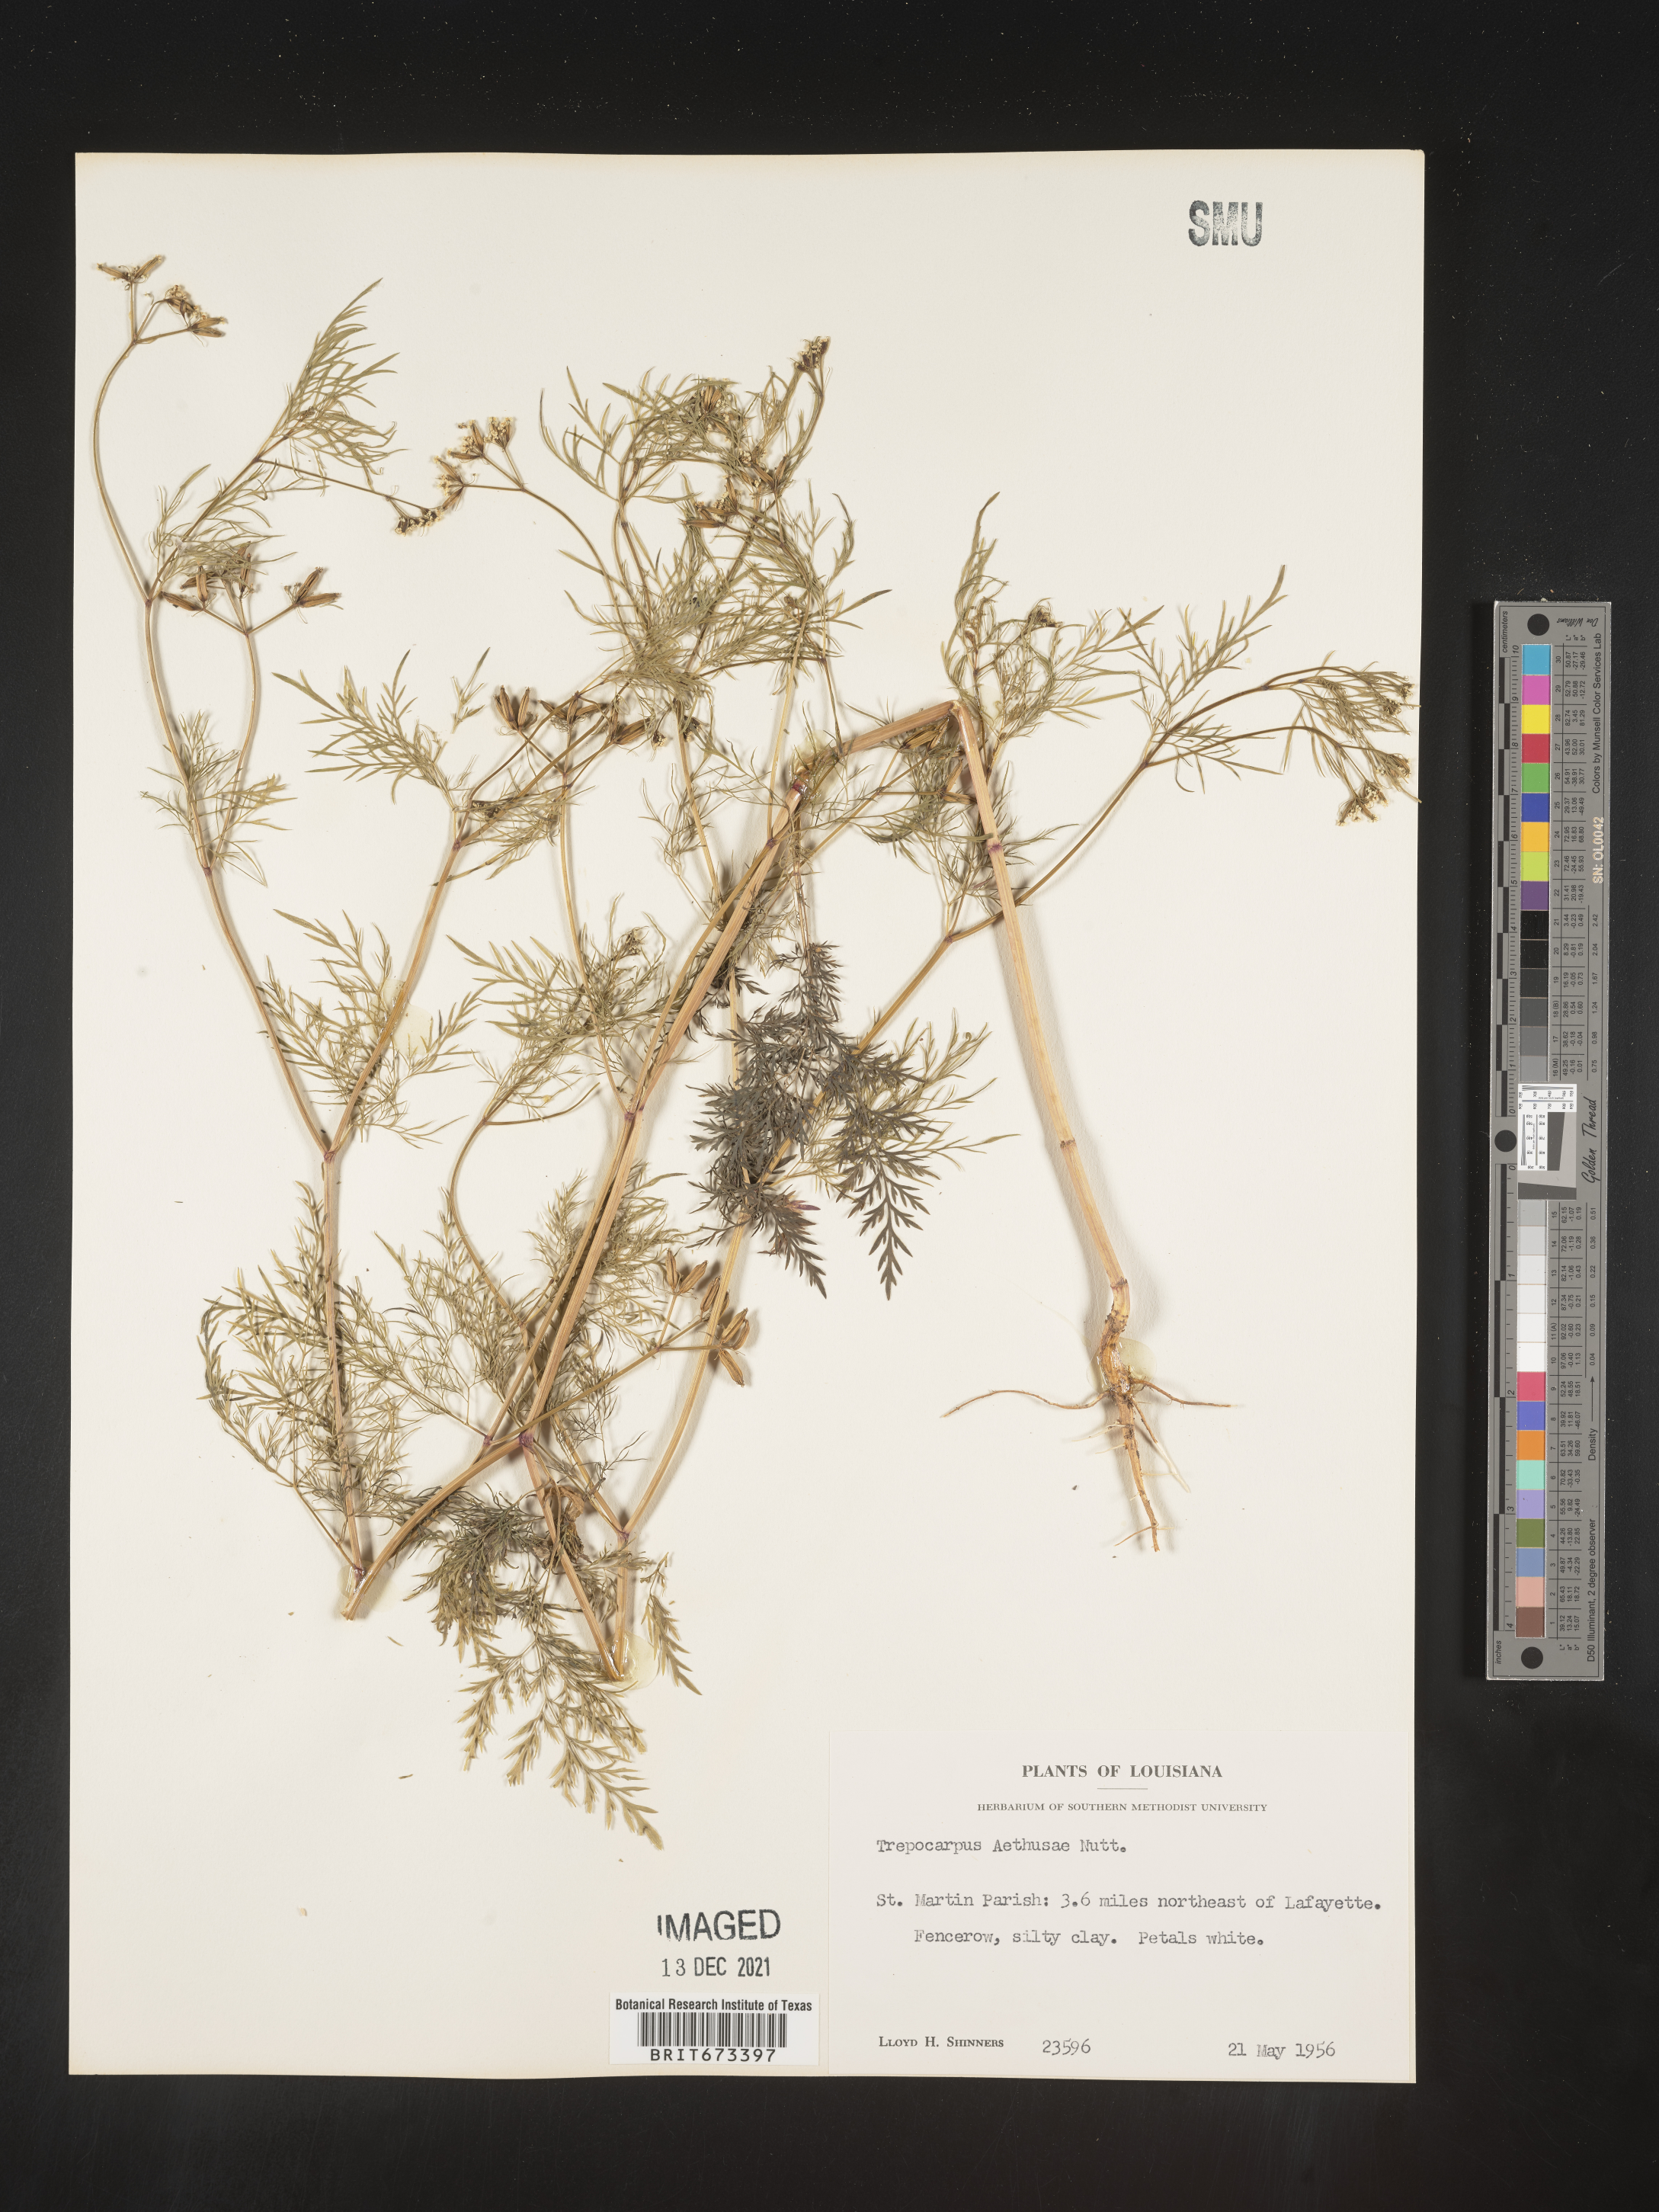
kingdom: Plantae
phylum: Tracheophyta
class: Magnoliopsida
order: Apiales
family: Apiaceae
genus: Trepocarpus
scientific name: Trepocarpus aethusae
